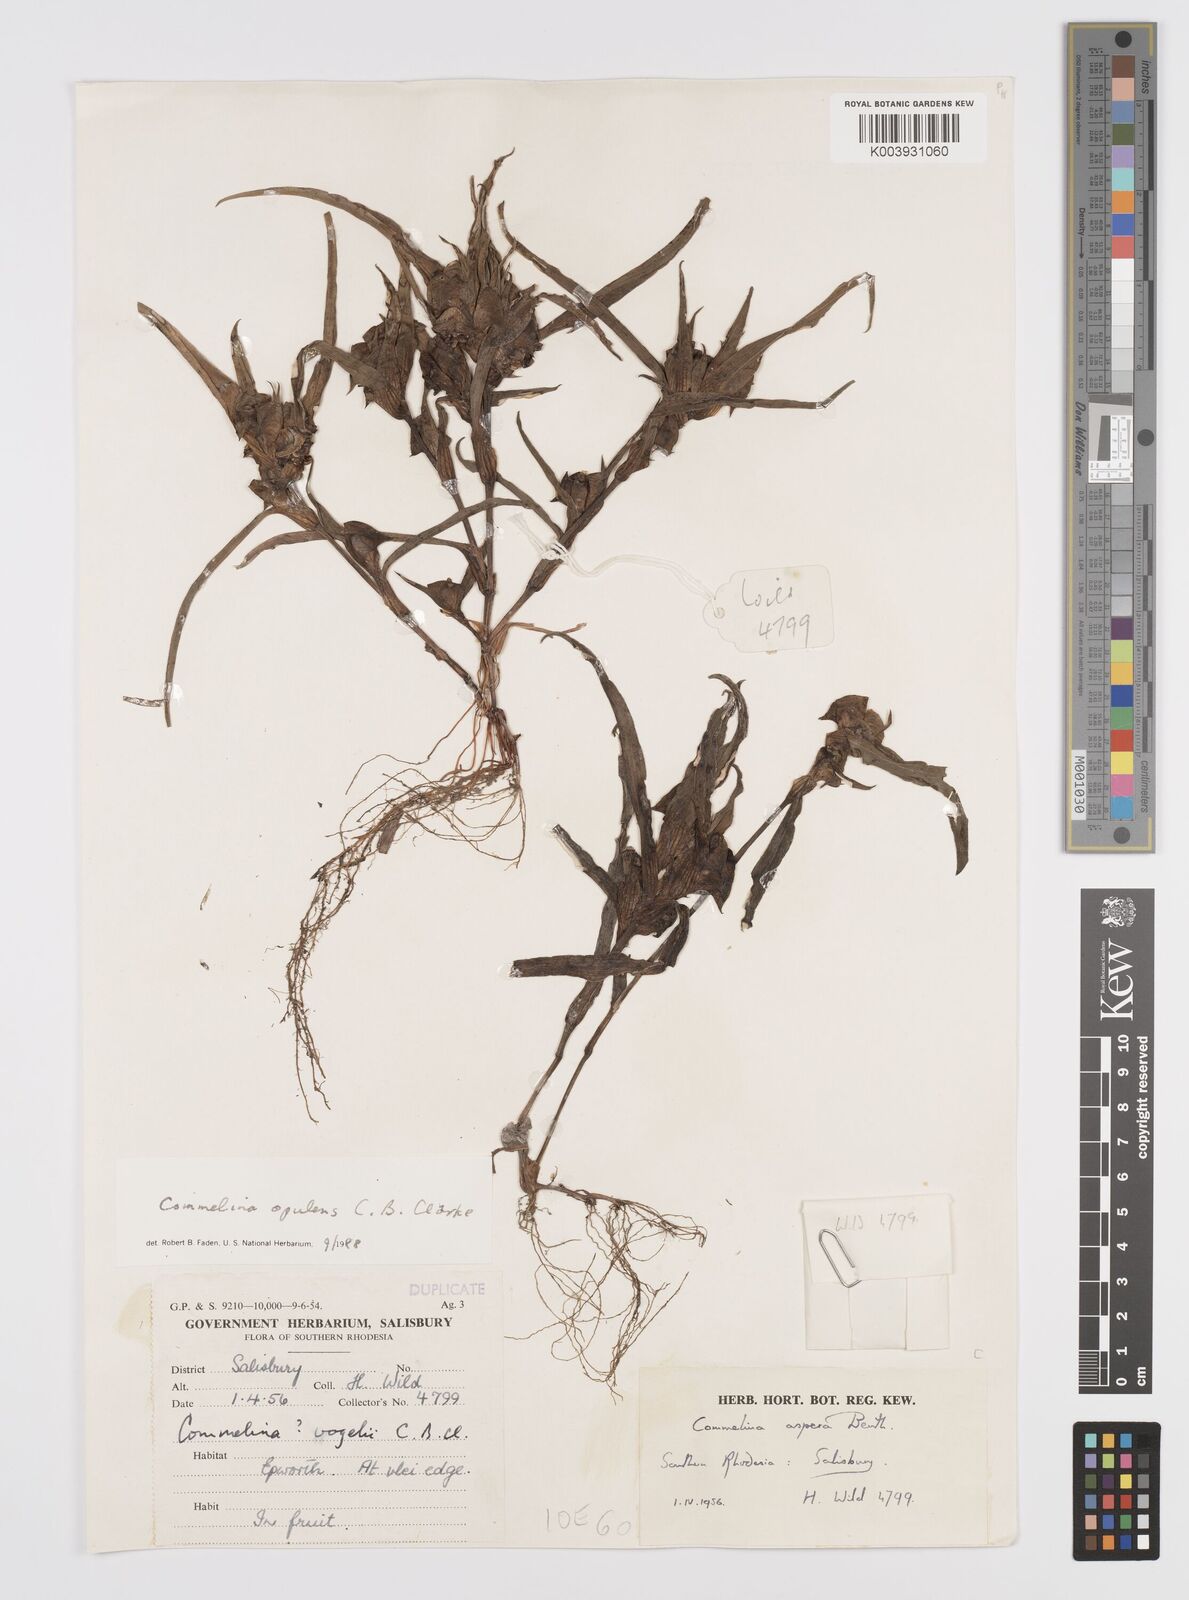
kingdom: Plantae
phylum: Tracheophyta
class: Liliopsida
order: Commelinales
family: Commelinaceae
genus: Commelina
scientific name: Commelina aspera
